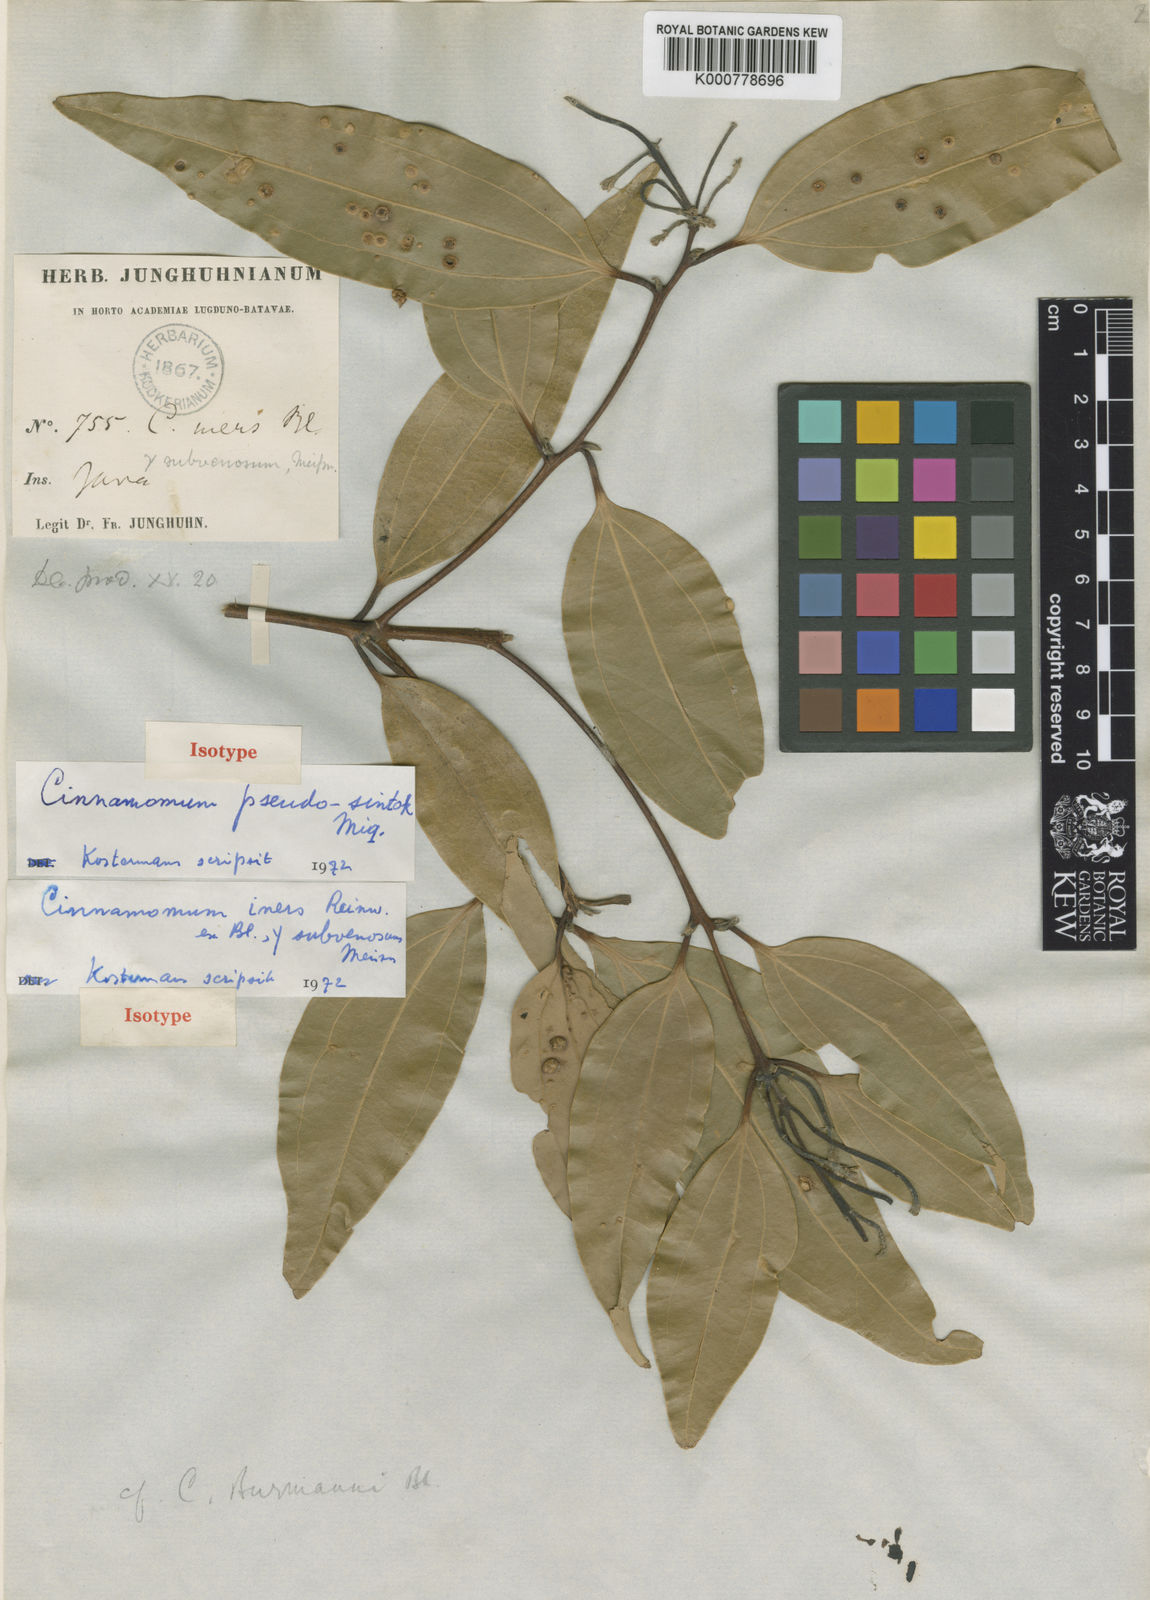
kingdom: Plantae
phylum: Tracheophyta
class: Magnoliopsida
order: Laurales
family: Lauraceae
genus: Cinnamomum
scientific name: Cinnamomum sintoc
